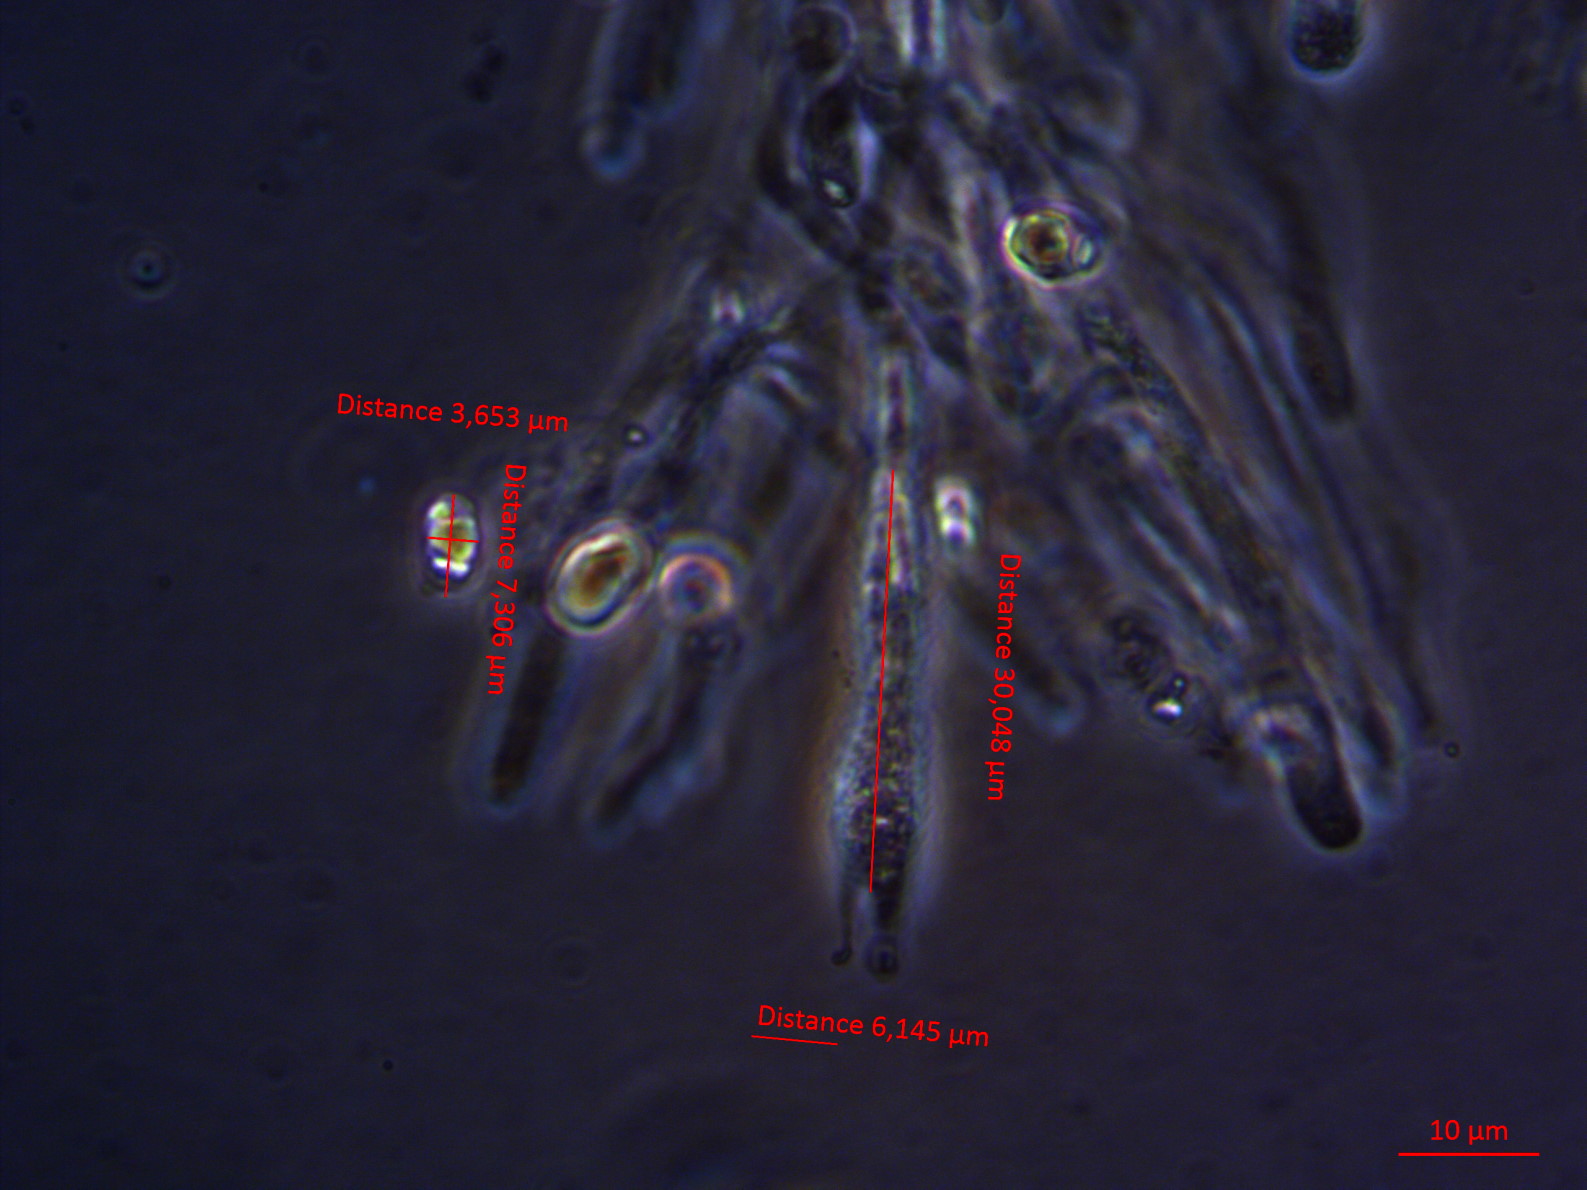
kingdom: Fungi
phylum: Basidiomycota
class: Agaricomycetes
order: Agaricales
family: Hygrophoraceae
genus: Hygrocybe
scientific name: Hygrocybe reidii
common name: honning-vokshat
